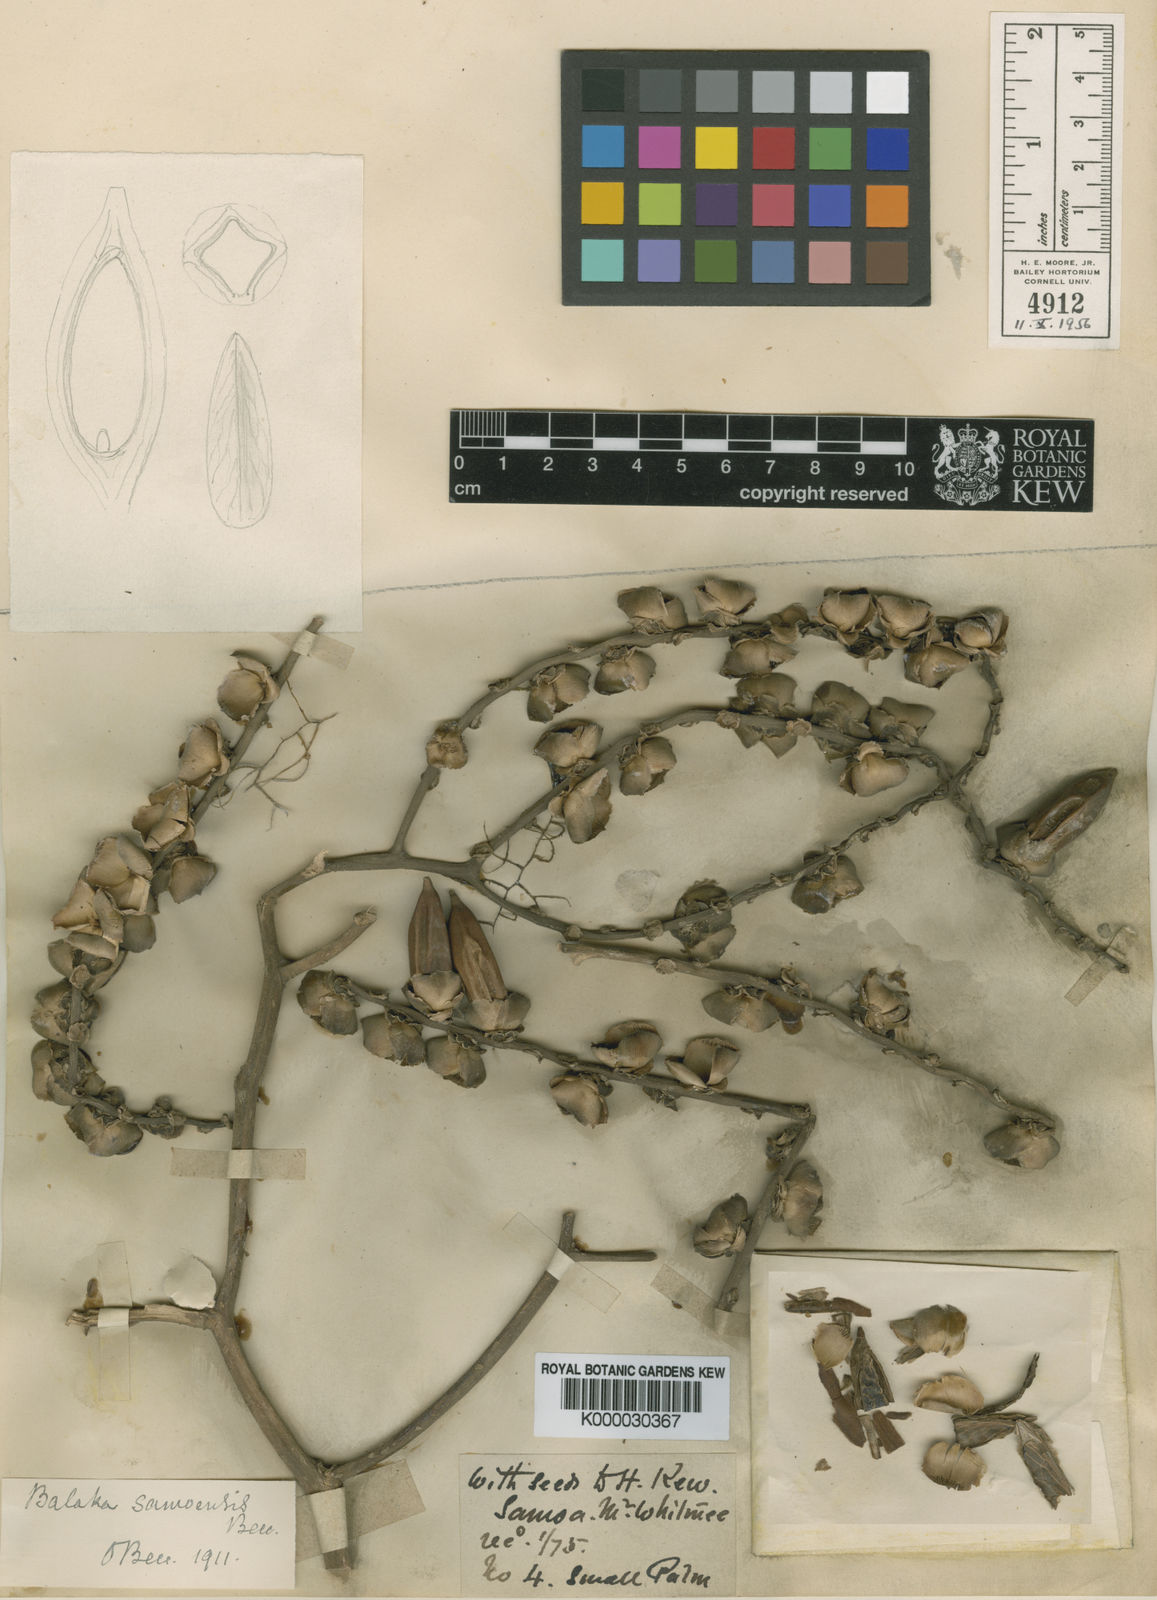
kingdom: Plantae
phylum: Tracheophyta
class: Liliopsida
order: Arecales
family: Arecaceae
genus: Balaka
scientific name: Balaka samoensis
